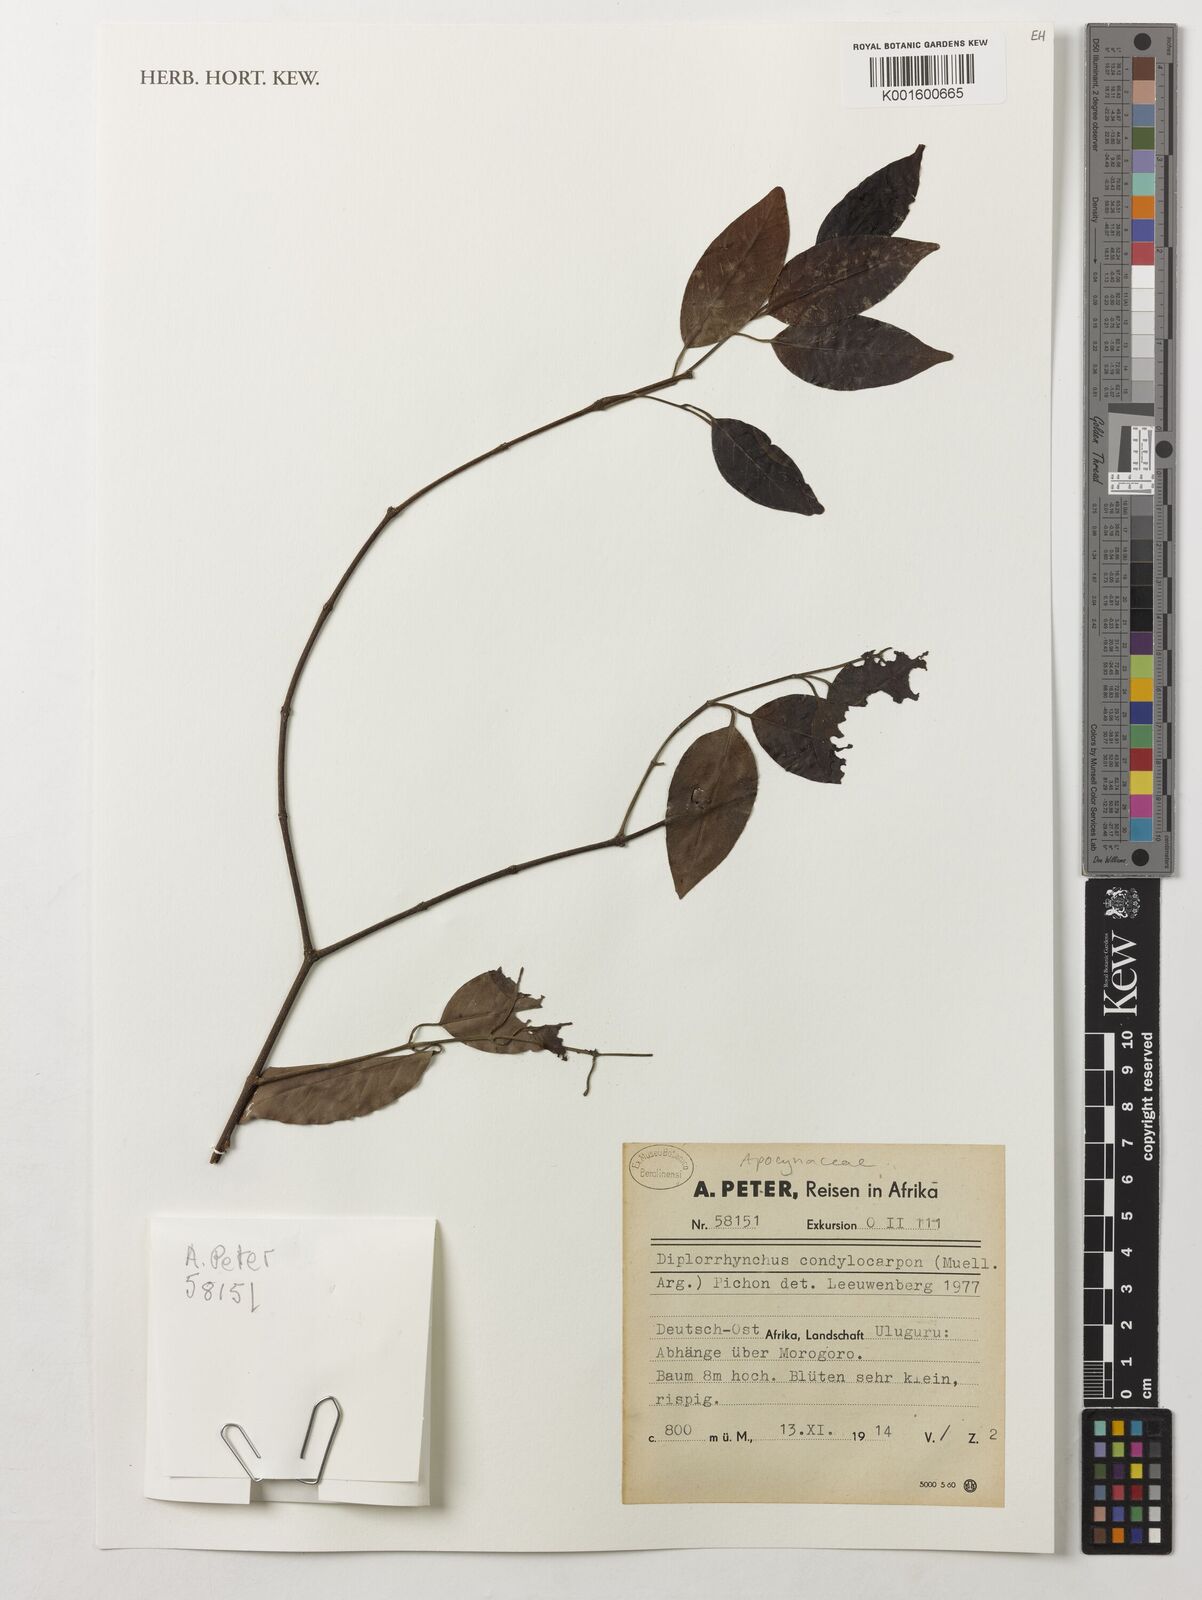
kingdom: Plantae
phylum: Tracheophyta
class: Magnoliopsida
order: Gentianales
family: Apocynaceae
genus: Diplorhynchus
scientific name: Diplorhynchus condylocarpon
